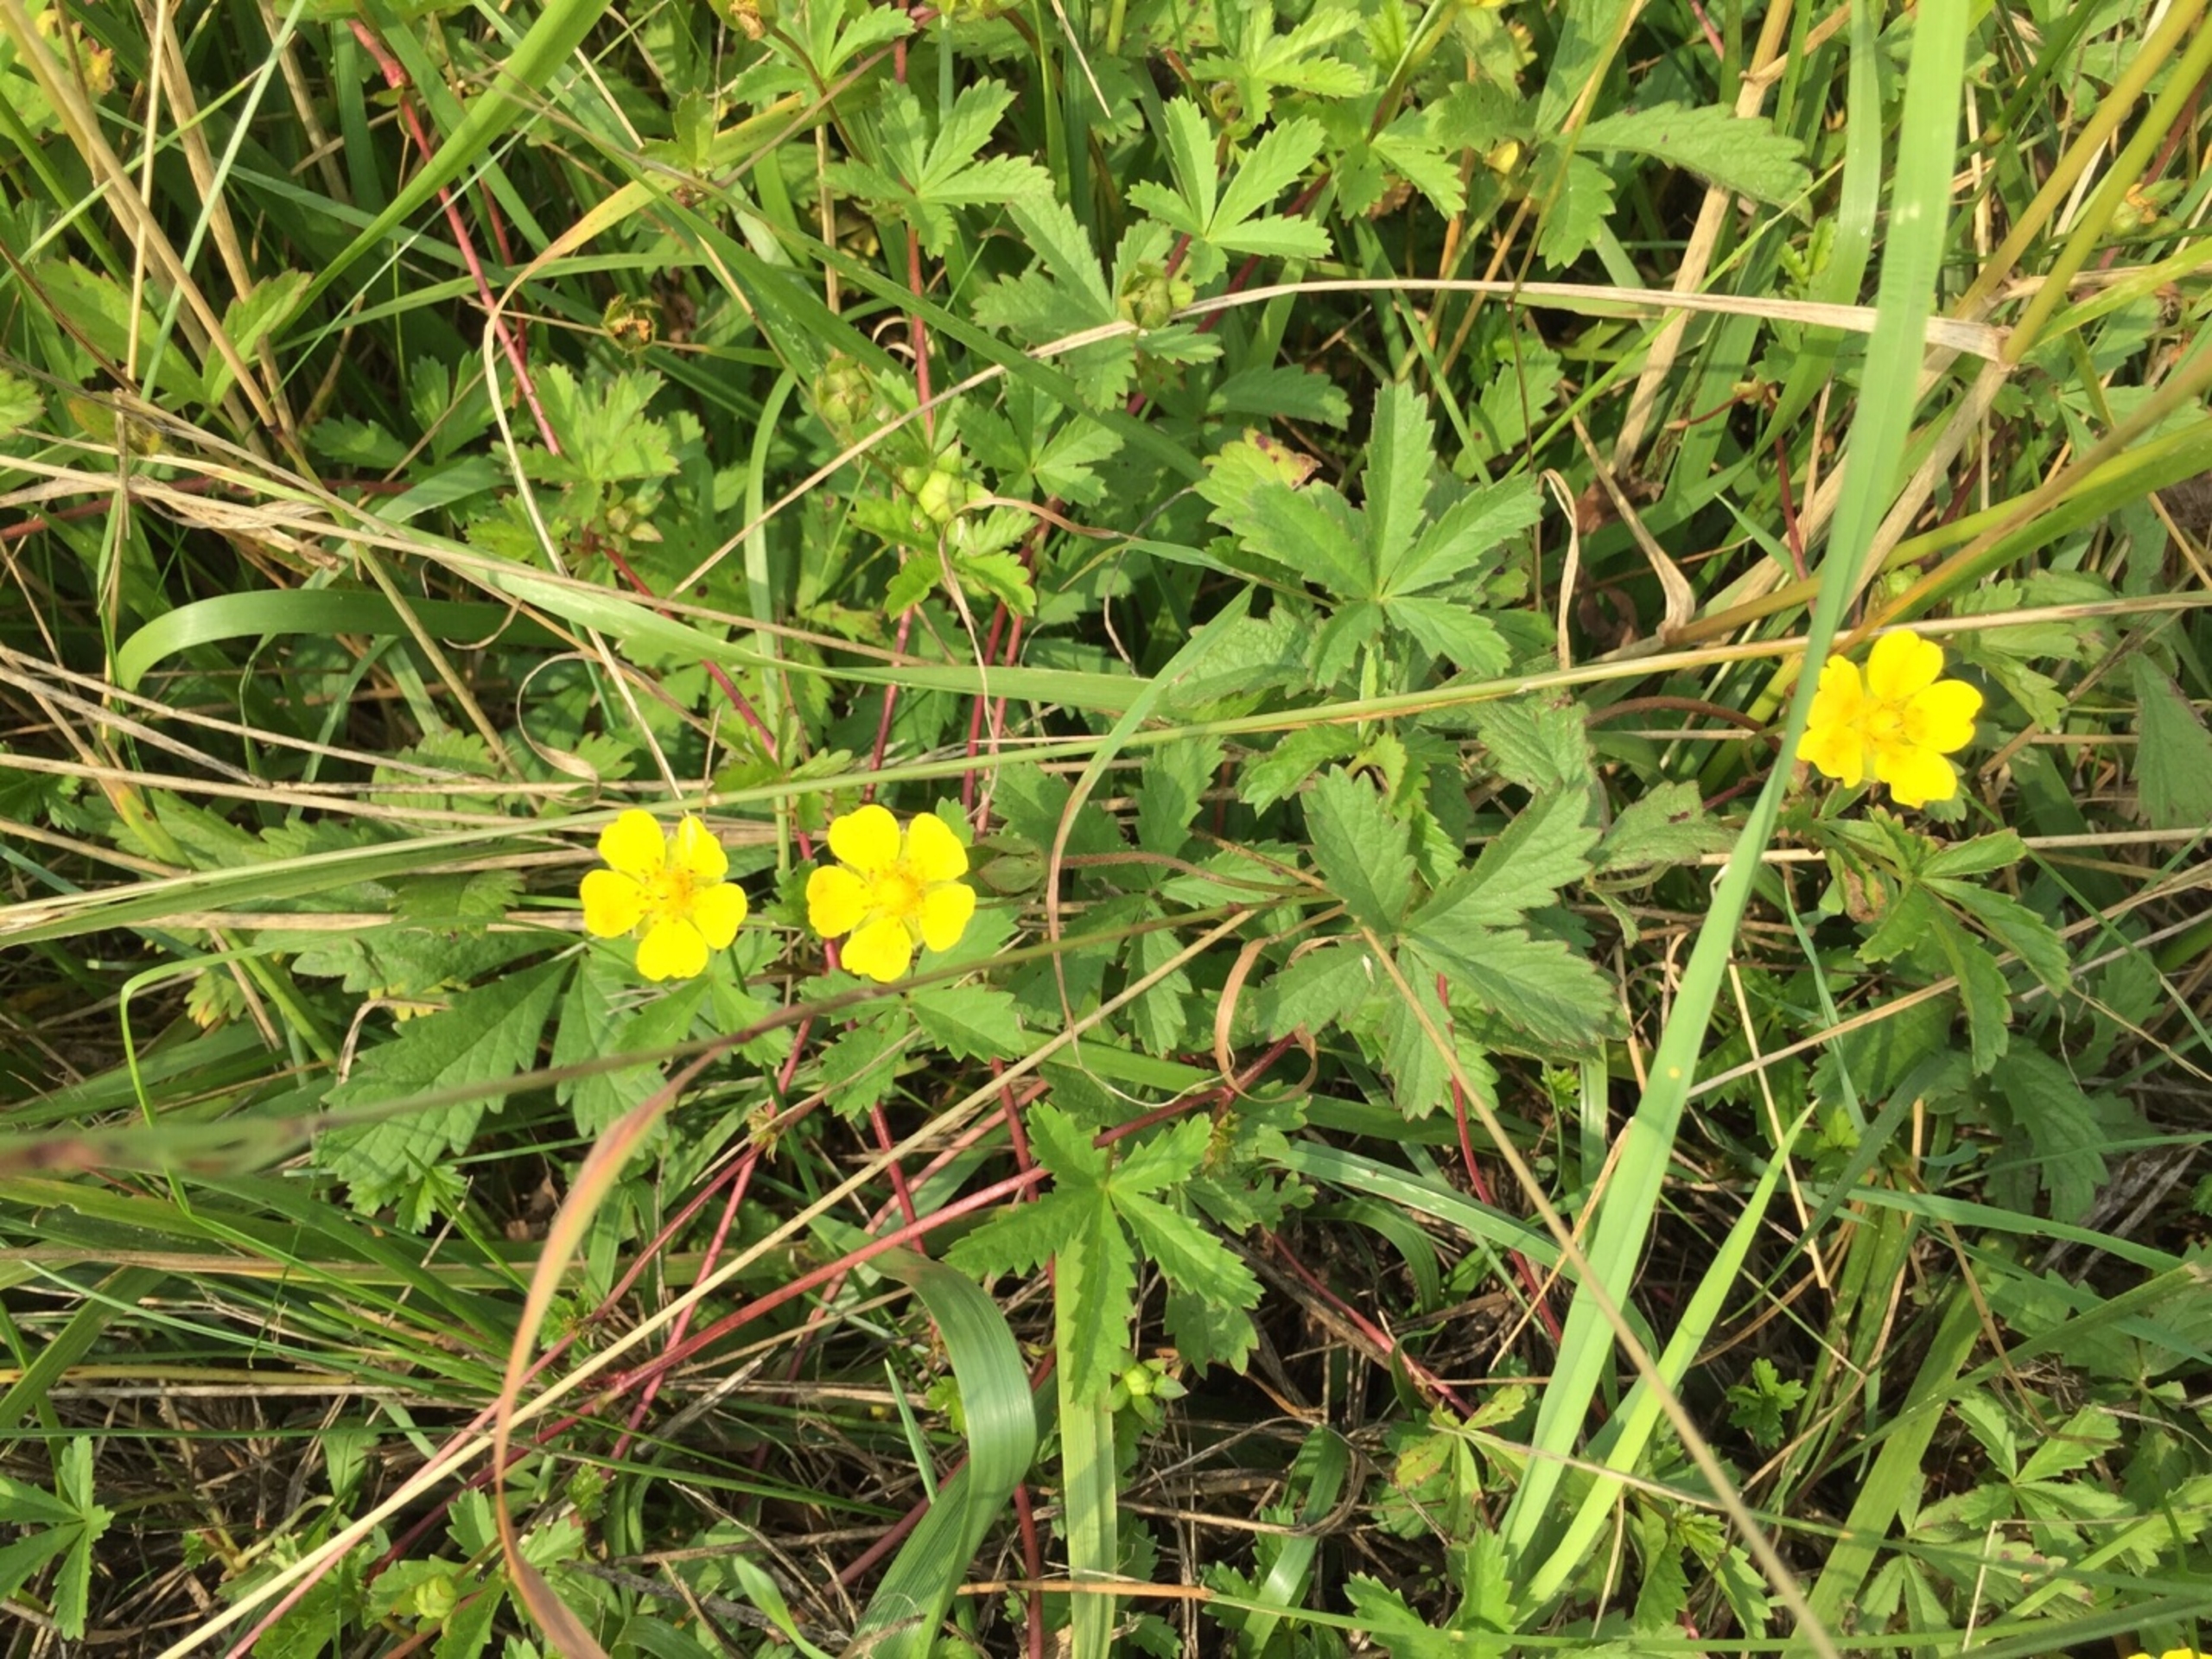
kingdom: Plantae
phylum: Tracheophyta
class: Magnoliopsida
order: Rosales
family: Rosaceae
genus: Potentilla
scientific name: Potentilla reptans
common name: Krybende potentil
